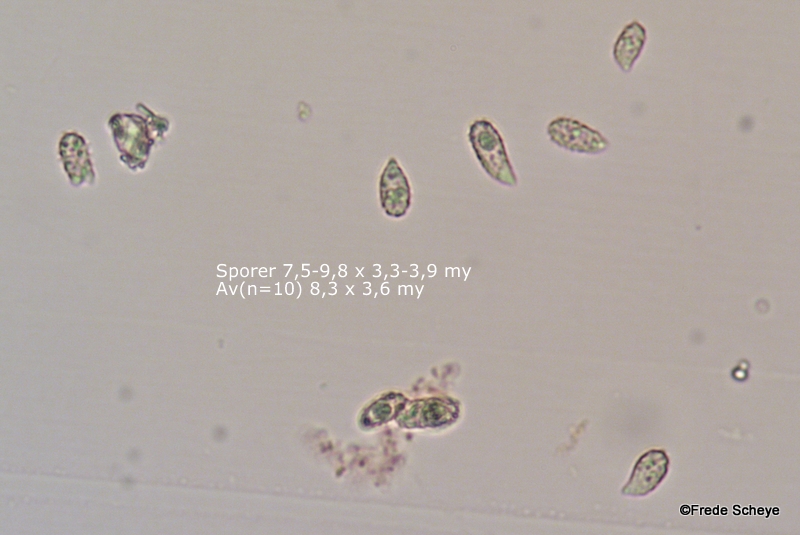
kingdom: Fungi
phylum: Basidiomycota
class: Agaricomycetes
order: Gomphales
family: Gomphaceae
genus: Phaeoclavulina
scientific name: Phaeoclavulina eumorpha
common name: gran-koralsvamp
